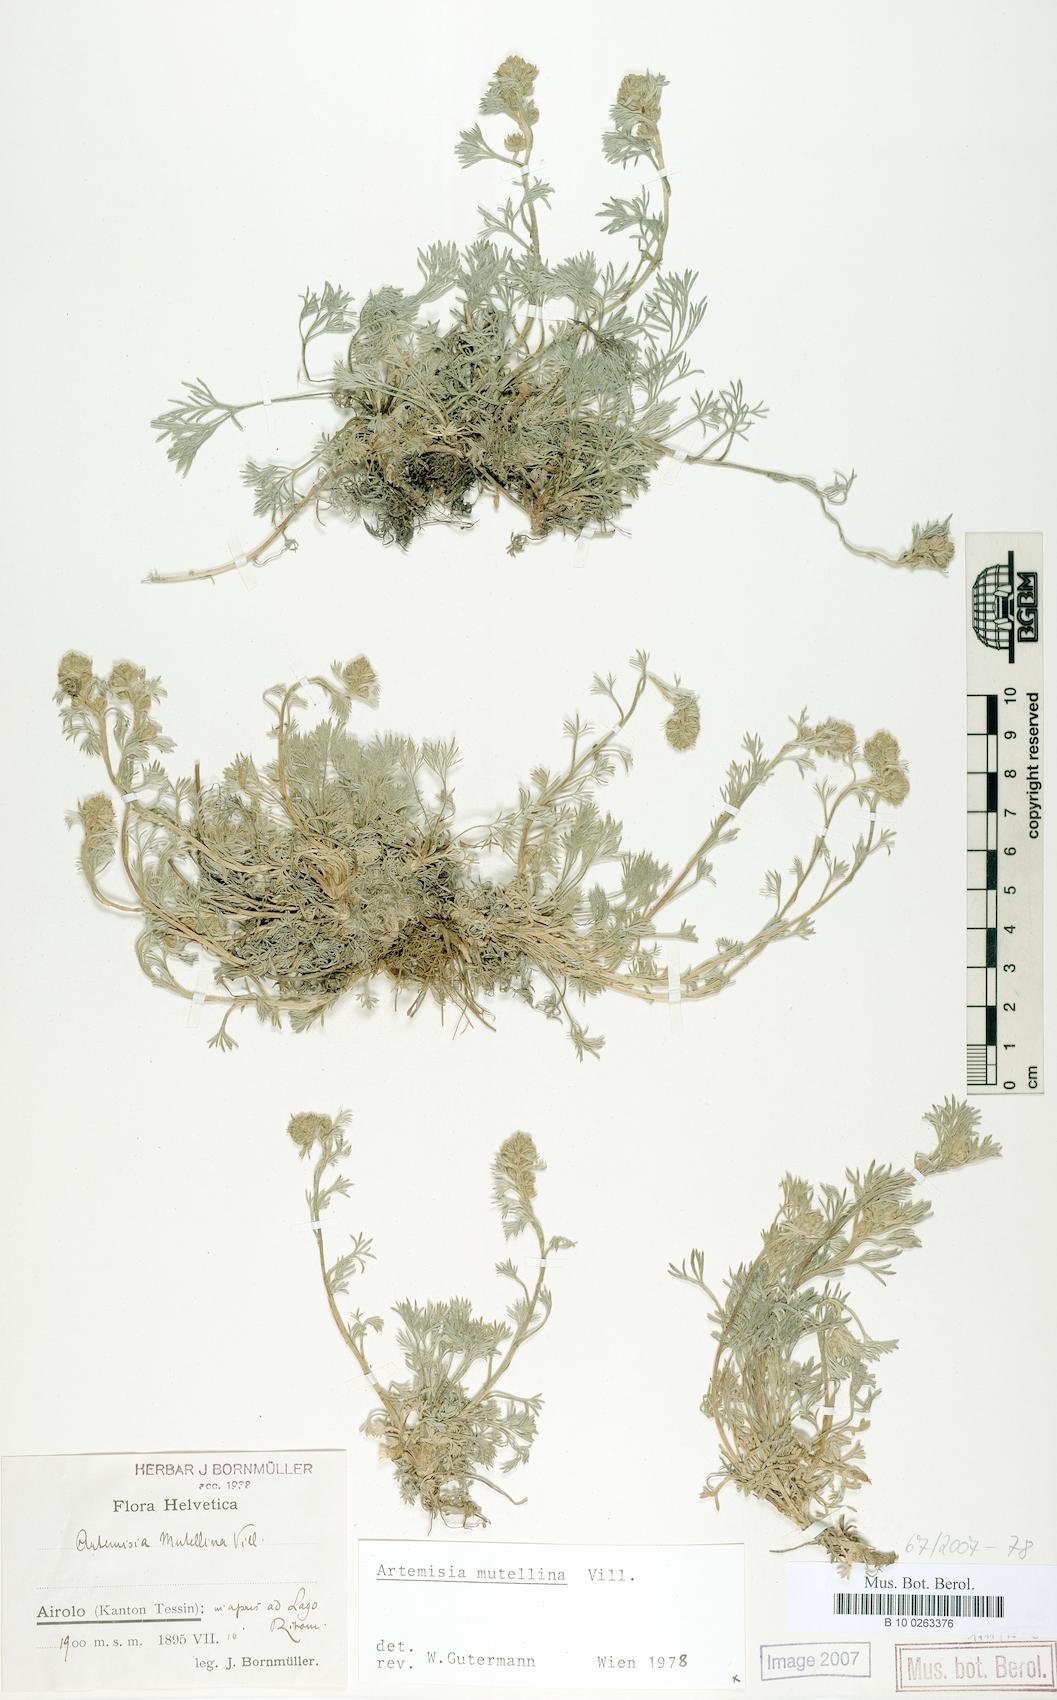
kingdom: Plantae
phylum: Tracheophyta
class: Magnoliopsida
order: Asterales
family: Asteraceae
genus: Artemisia
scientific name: Artemisia mutellina
